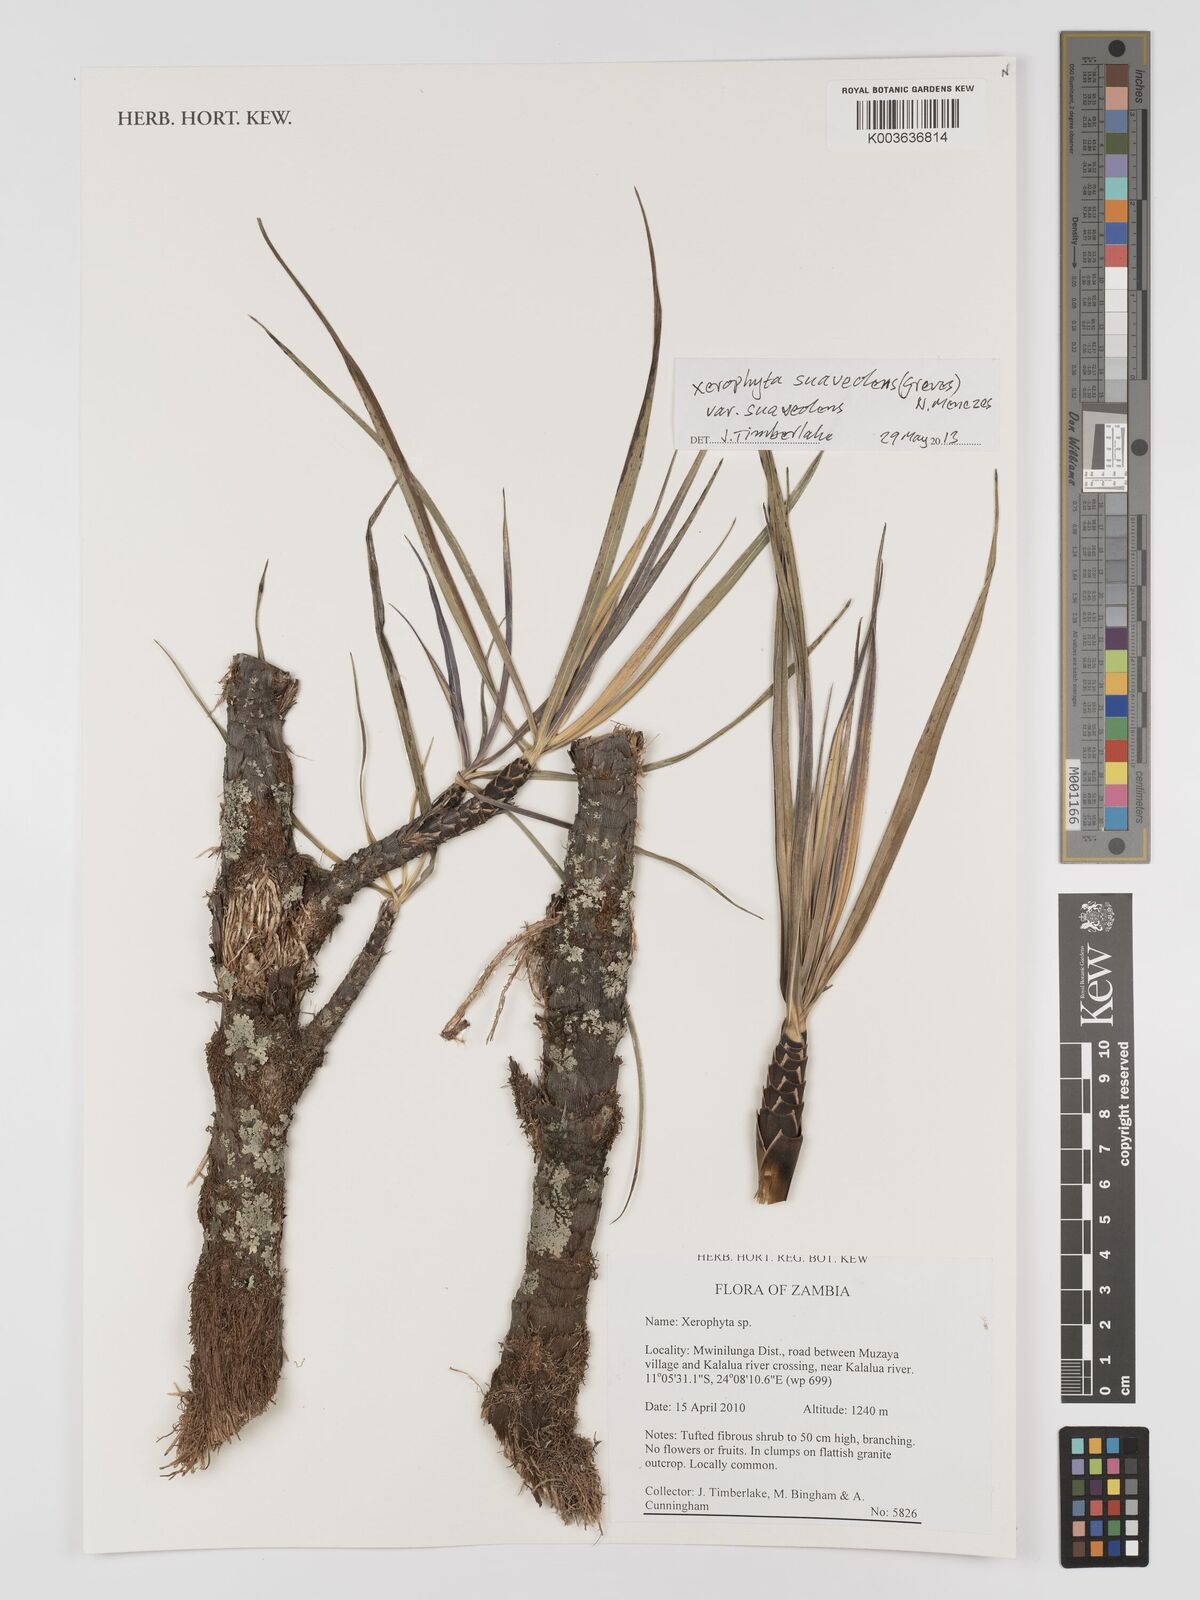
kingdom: Plantae
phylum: Tracheophyta
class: Liliopsida
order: Pandanales
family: Velloziaceae
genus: Xerophyta
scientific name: Xerophyta suaveolens
